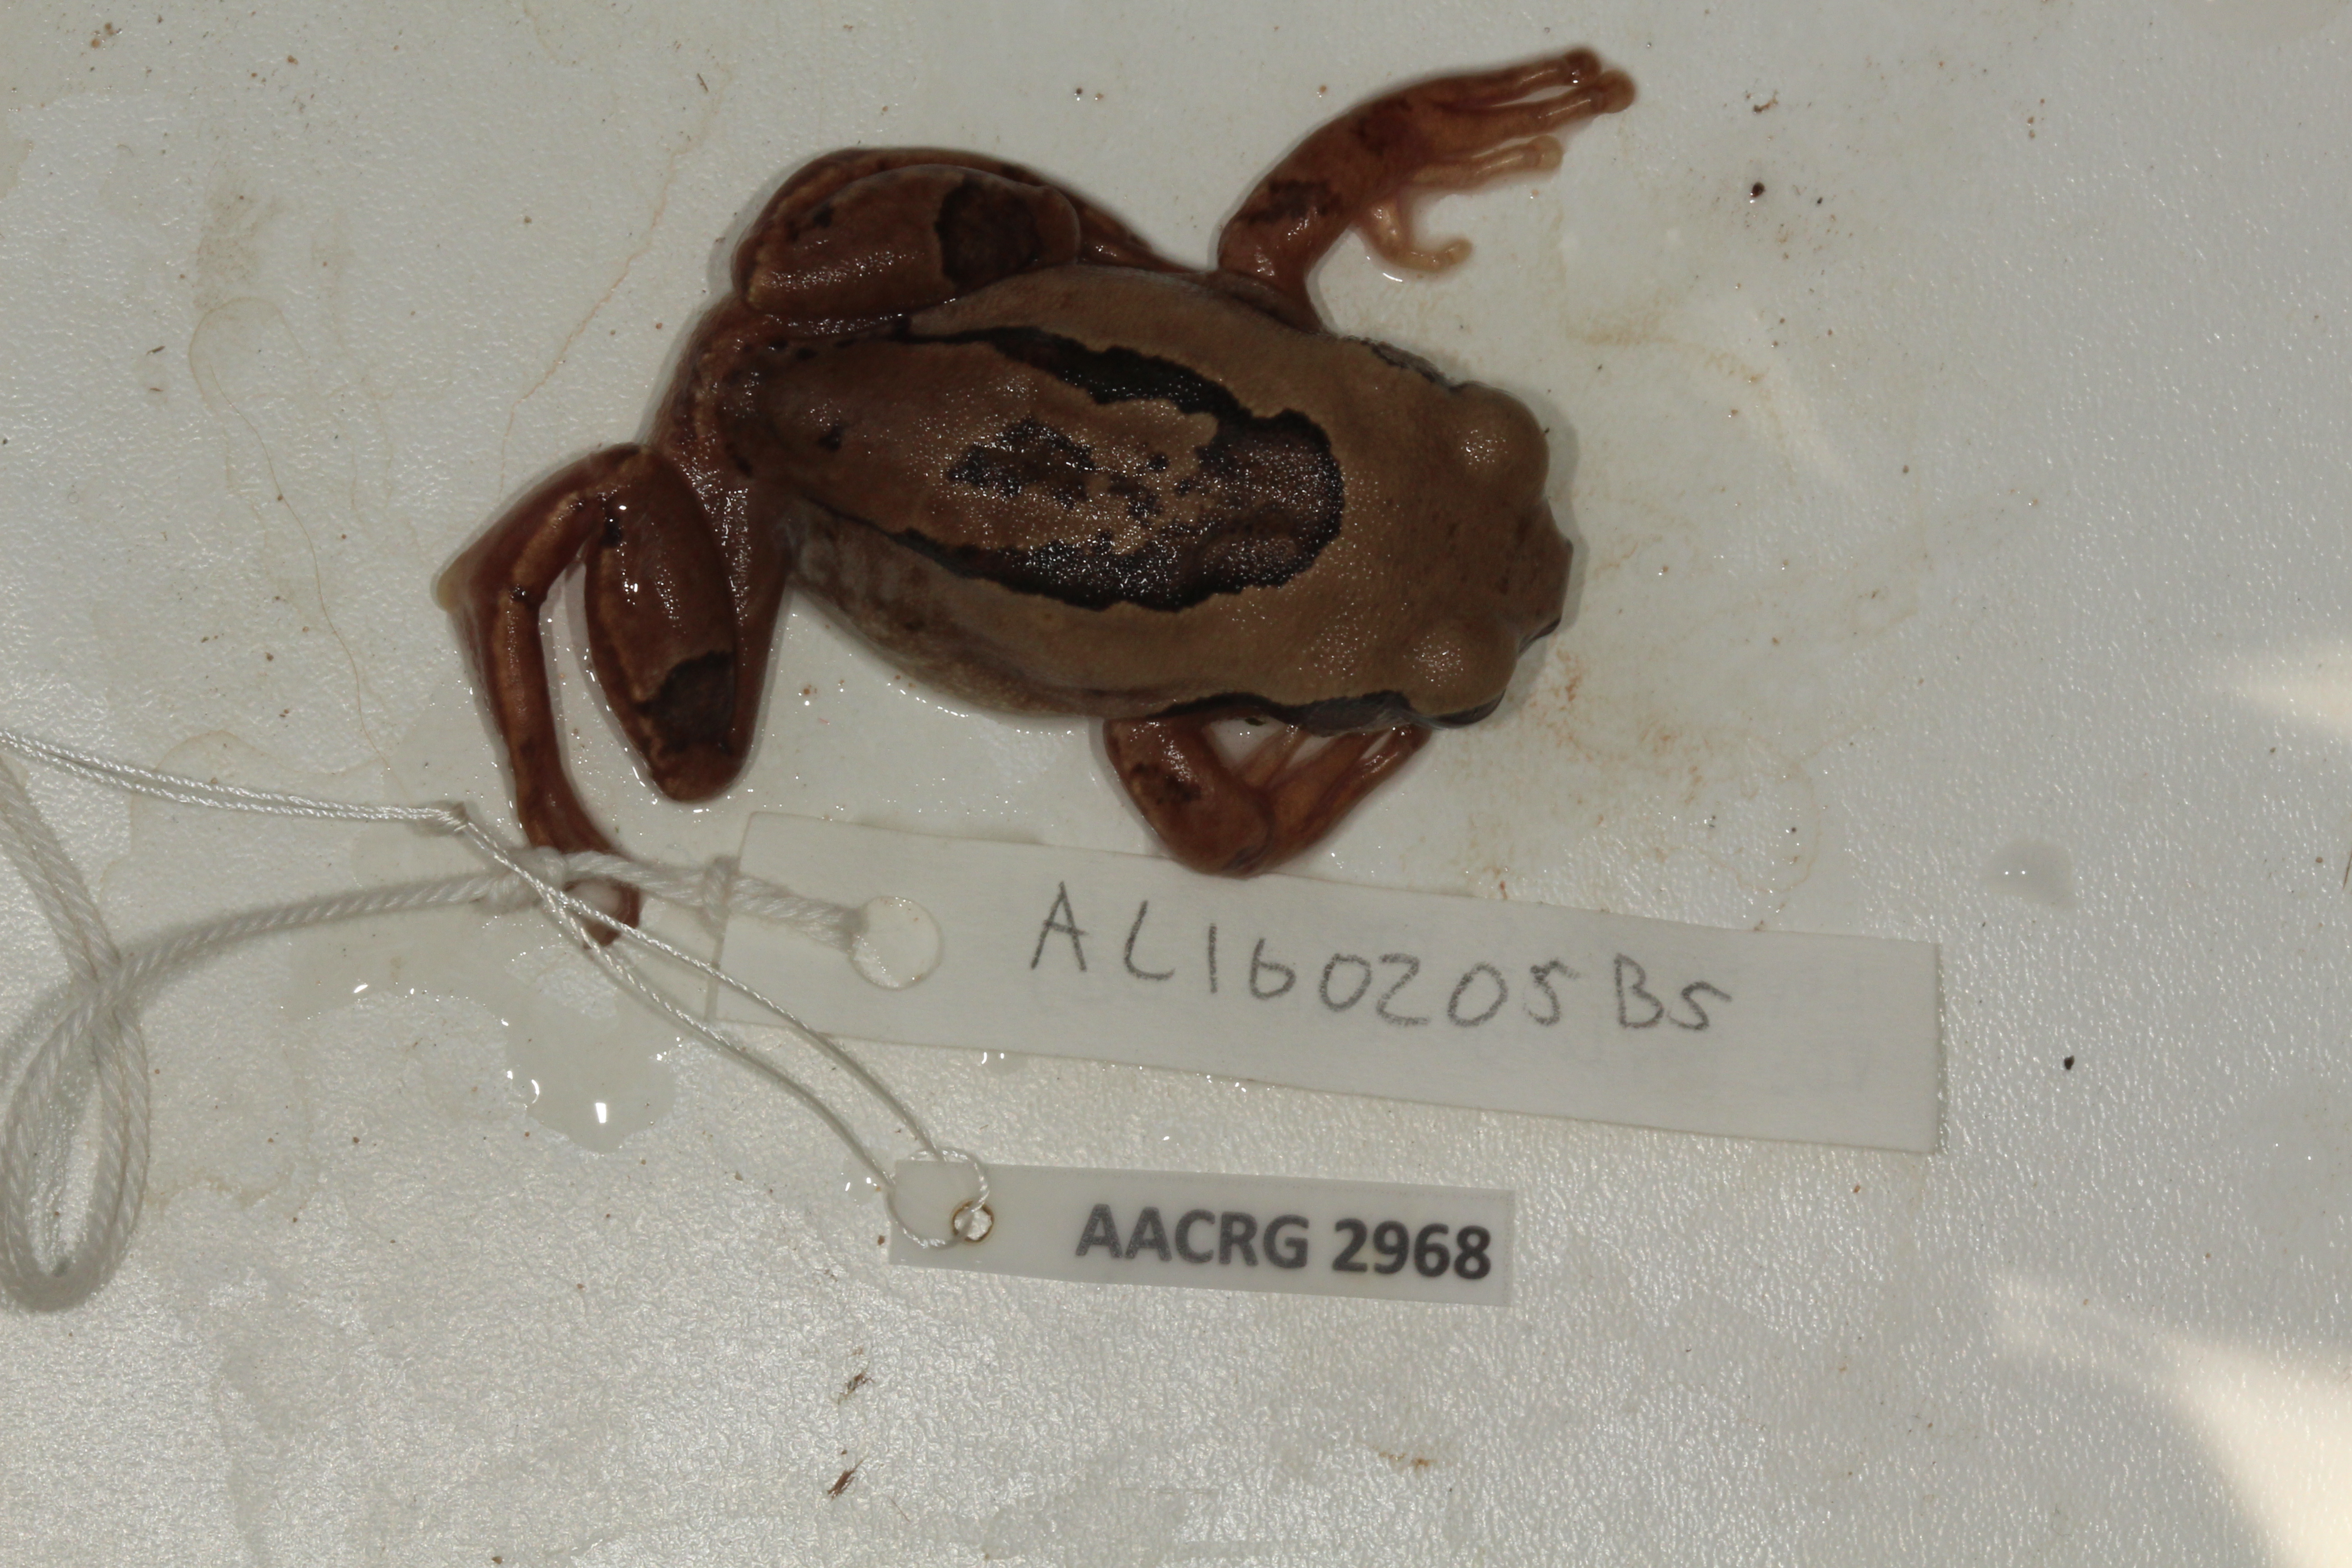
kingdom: Animalia
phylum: Chordata
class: Amphibia
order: Anura
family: Arthroleptidae
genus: Leptopelis
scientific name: Leptopelis mossambicus
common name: Mozambique tree frog
